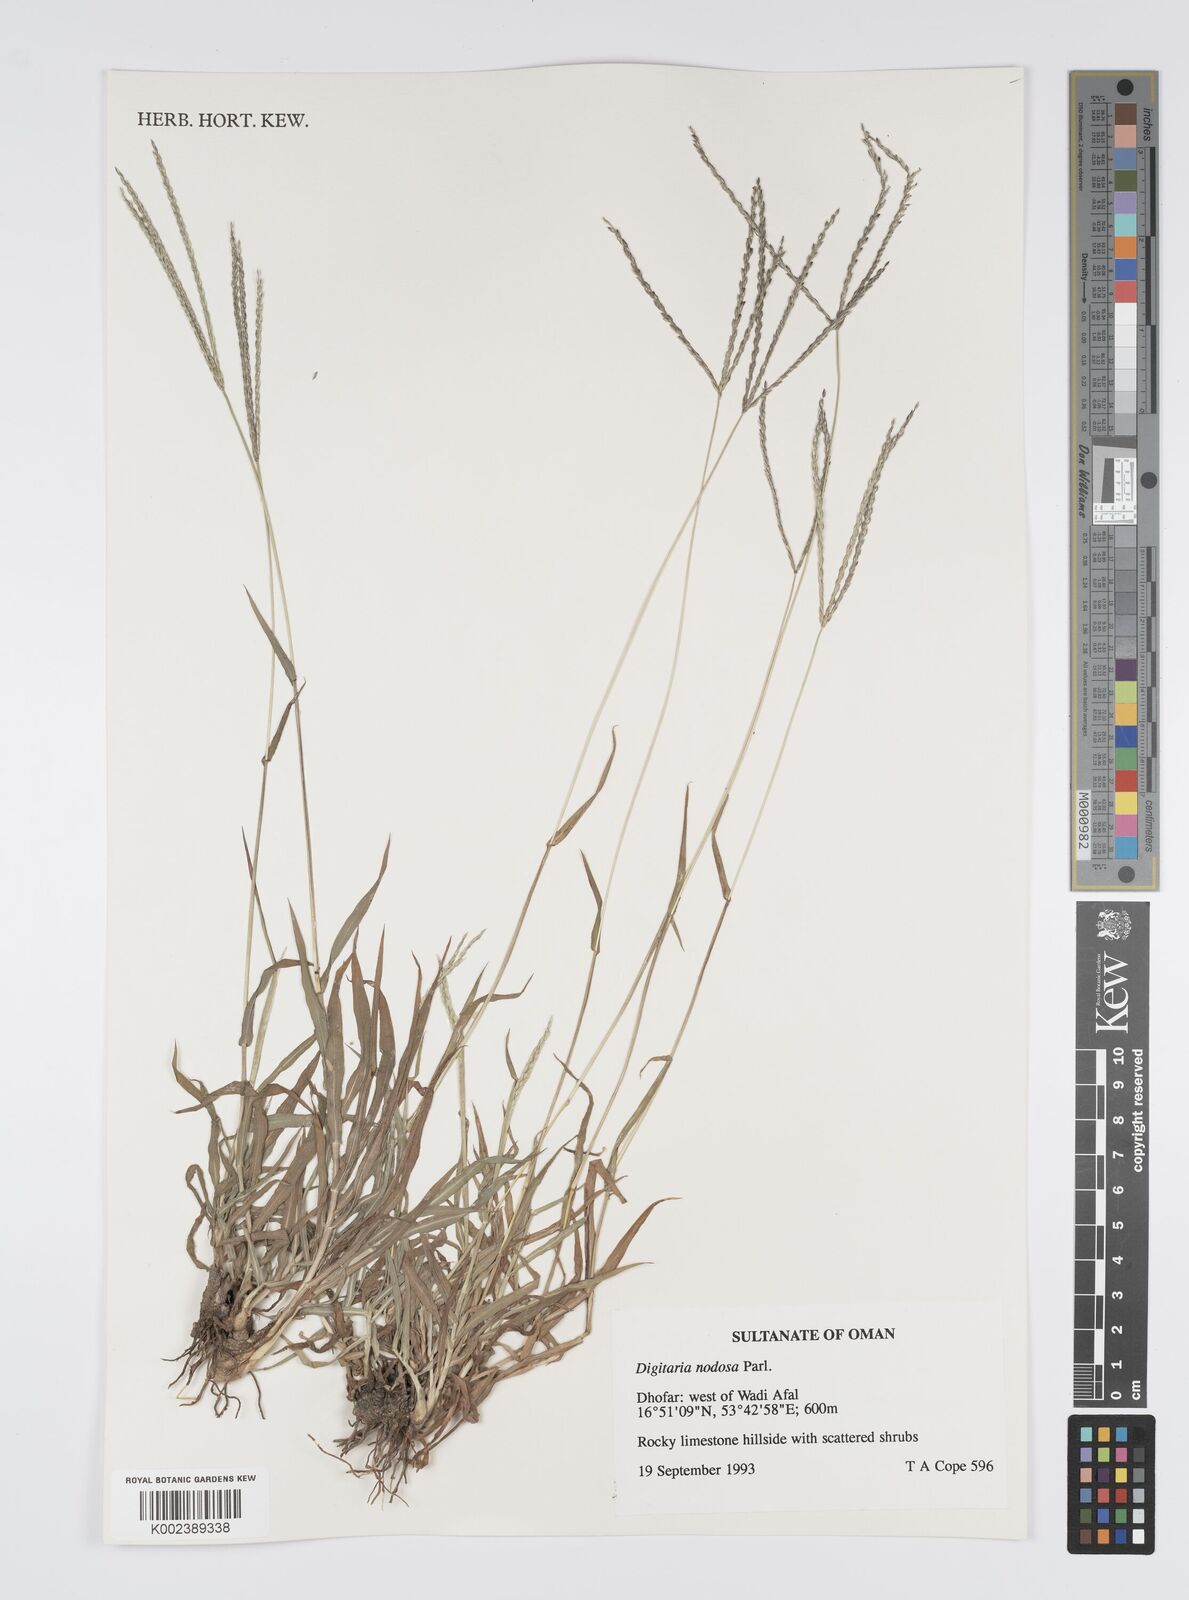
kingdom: Plantae
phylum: Tracheophyta
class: Liliopsida
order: Poales
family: Poaceae
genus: Digitaria
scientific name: Digitaria nodosa
